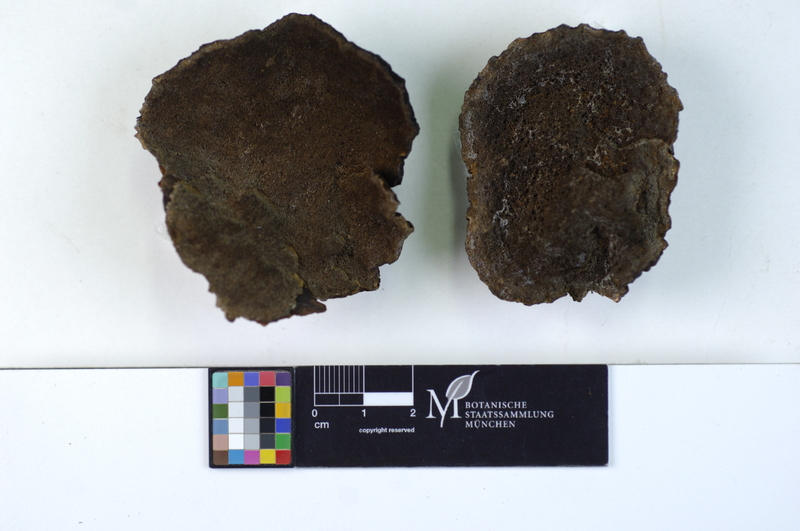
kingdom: Fungi
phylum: Basidiomycota
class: Agaricomycetes
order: Polyporales
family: Ischnodermataceae
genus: Ischnoderma
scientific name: Ischnoderma benzoinum
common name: Benzoin bracket
